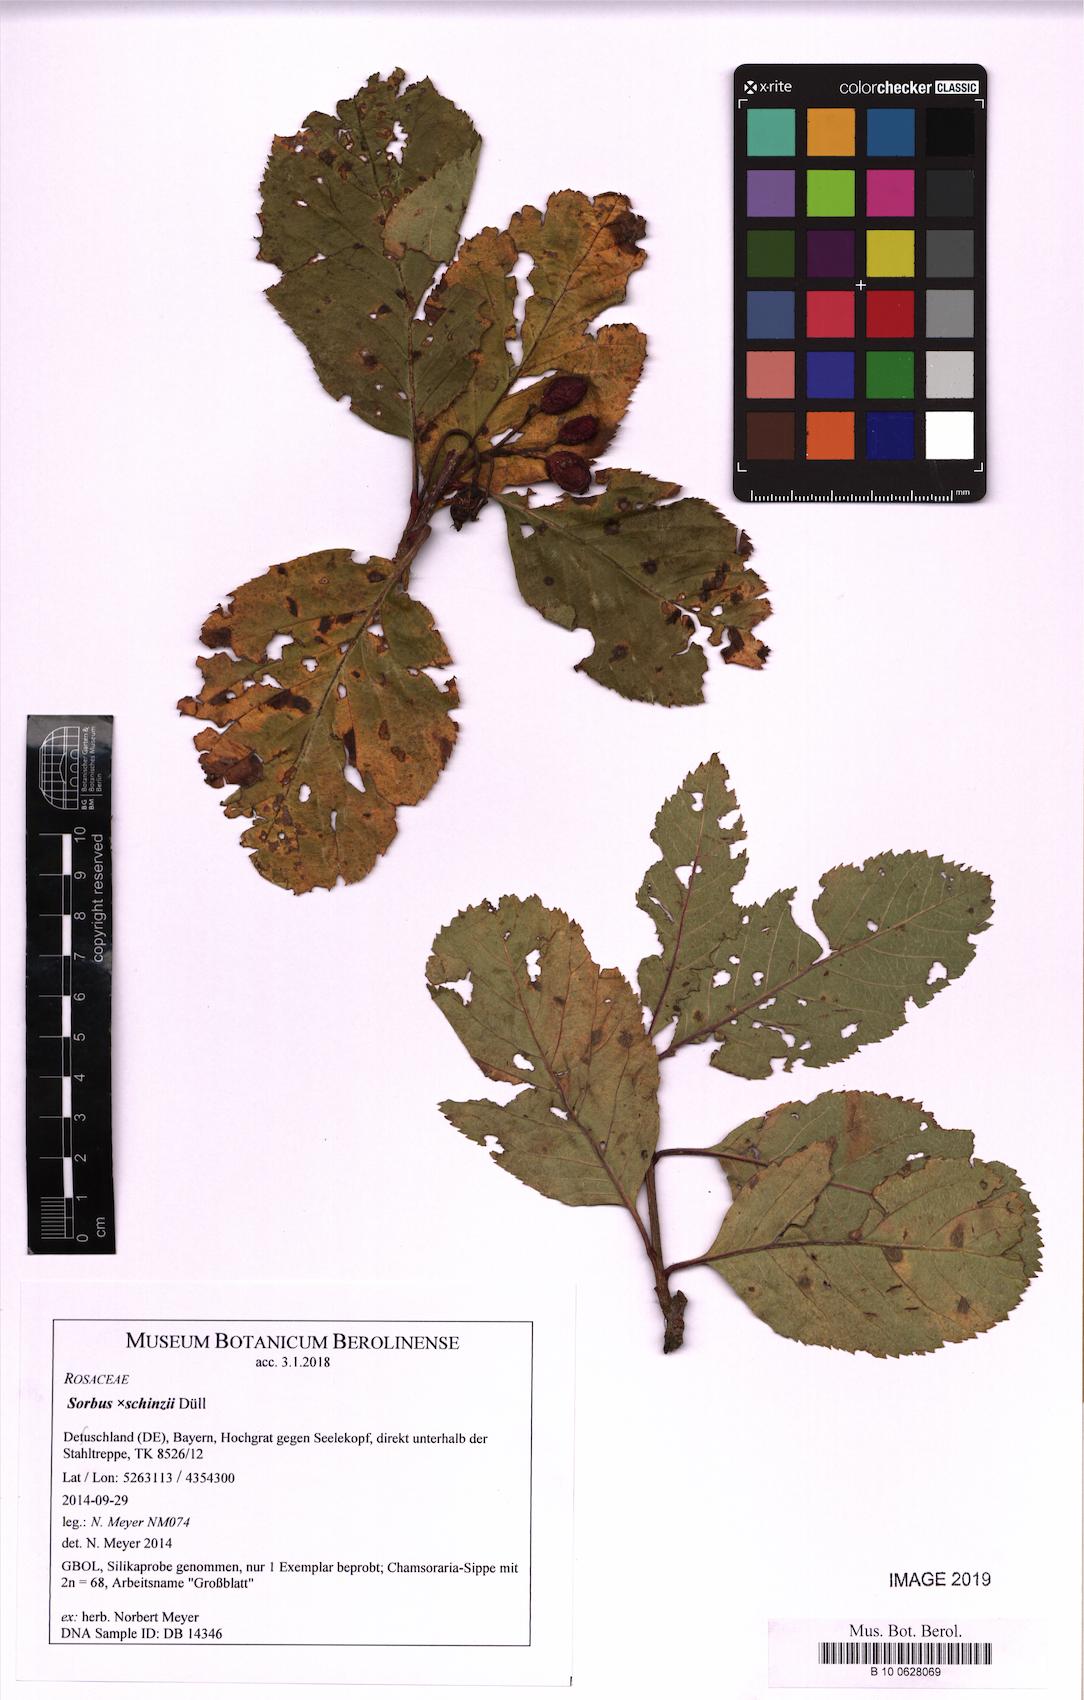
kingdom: Plantae
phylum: Tracheophyta
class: Magnoliopsida
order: Rosales
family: Rosaceae
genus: Normeyera
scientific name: Normeyera schinzii
